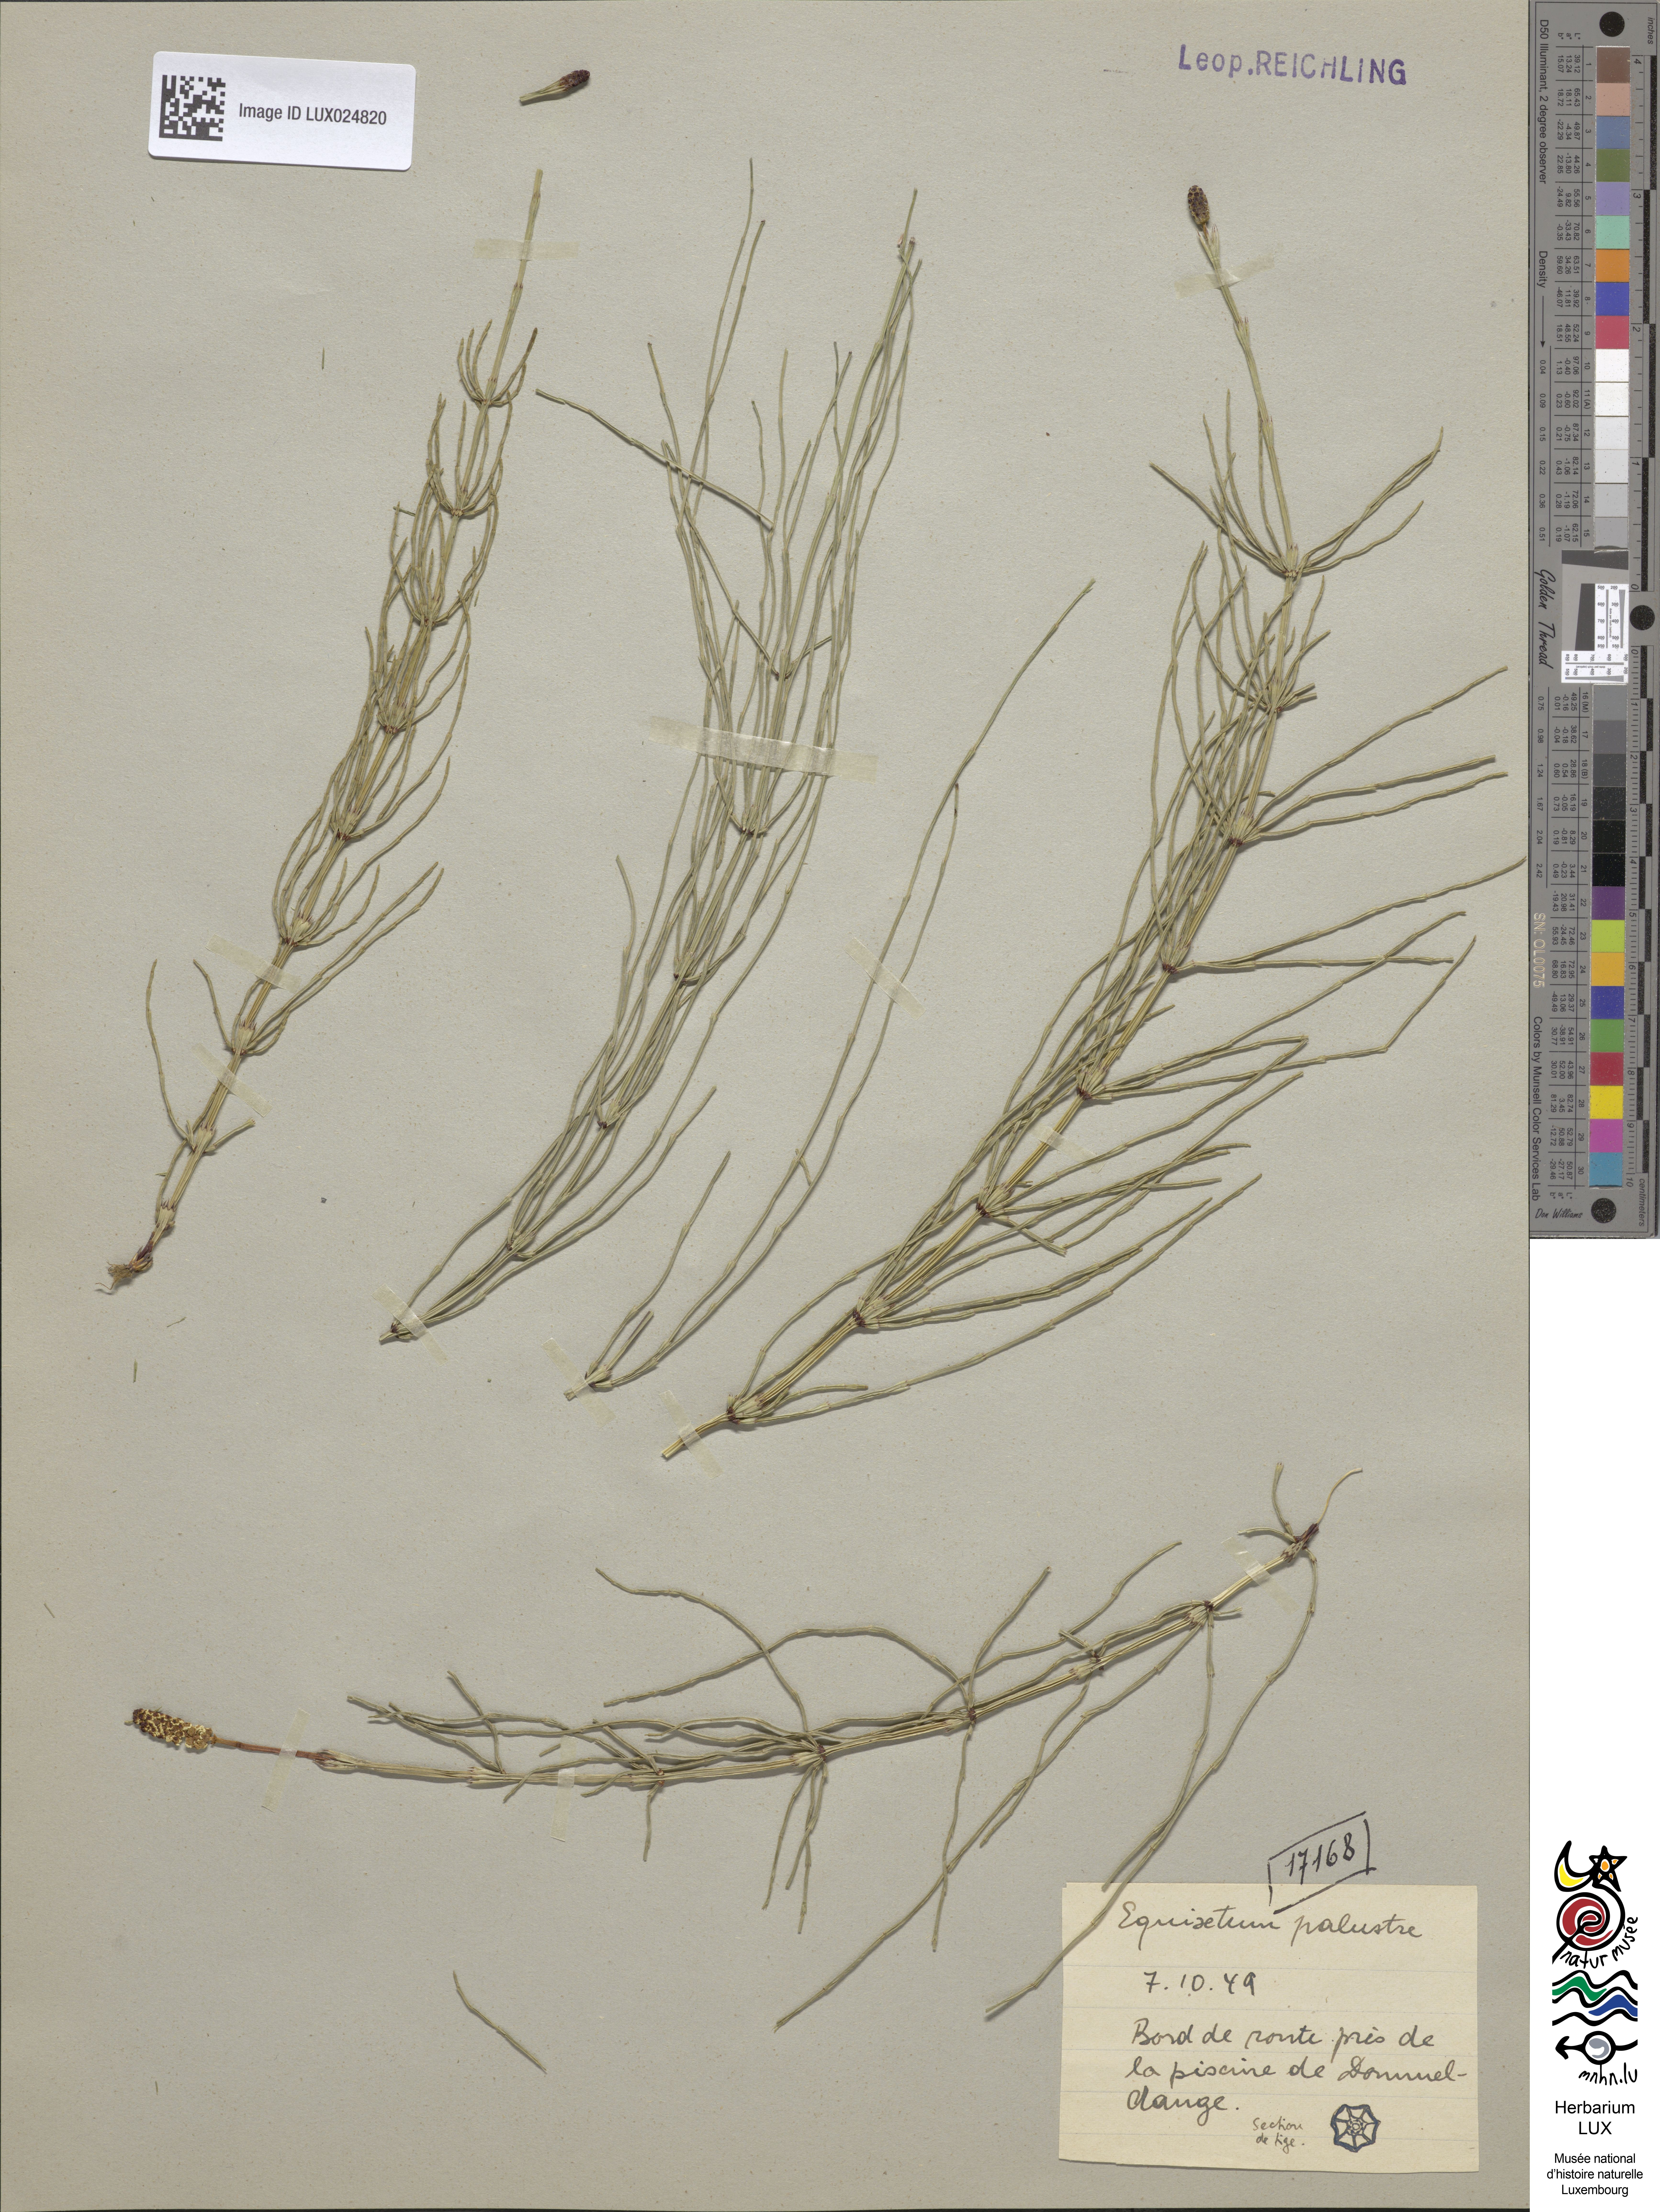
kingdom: Plantae
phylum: Tracheophyta
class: Polypodiopsida
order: Equisetales
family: Equisetaceae
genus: Equisetum
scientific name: Equisetum palustre
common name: Marsh horsetail
